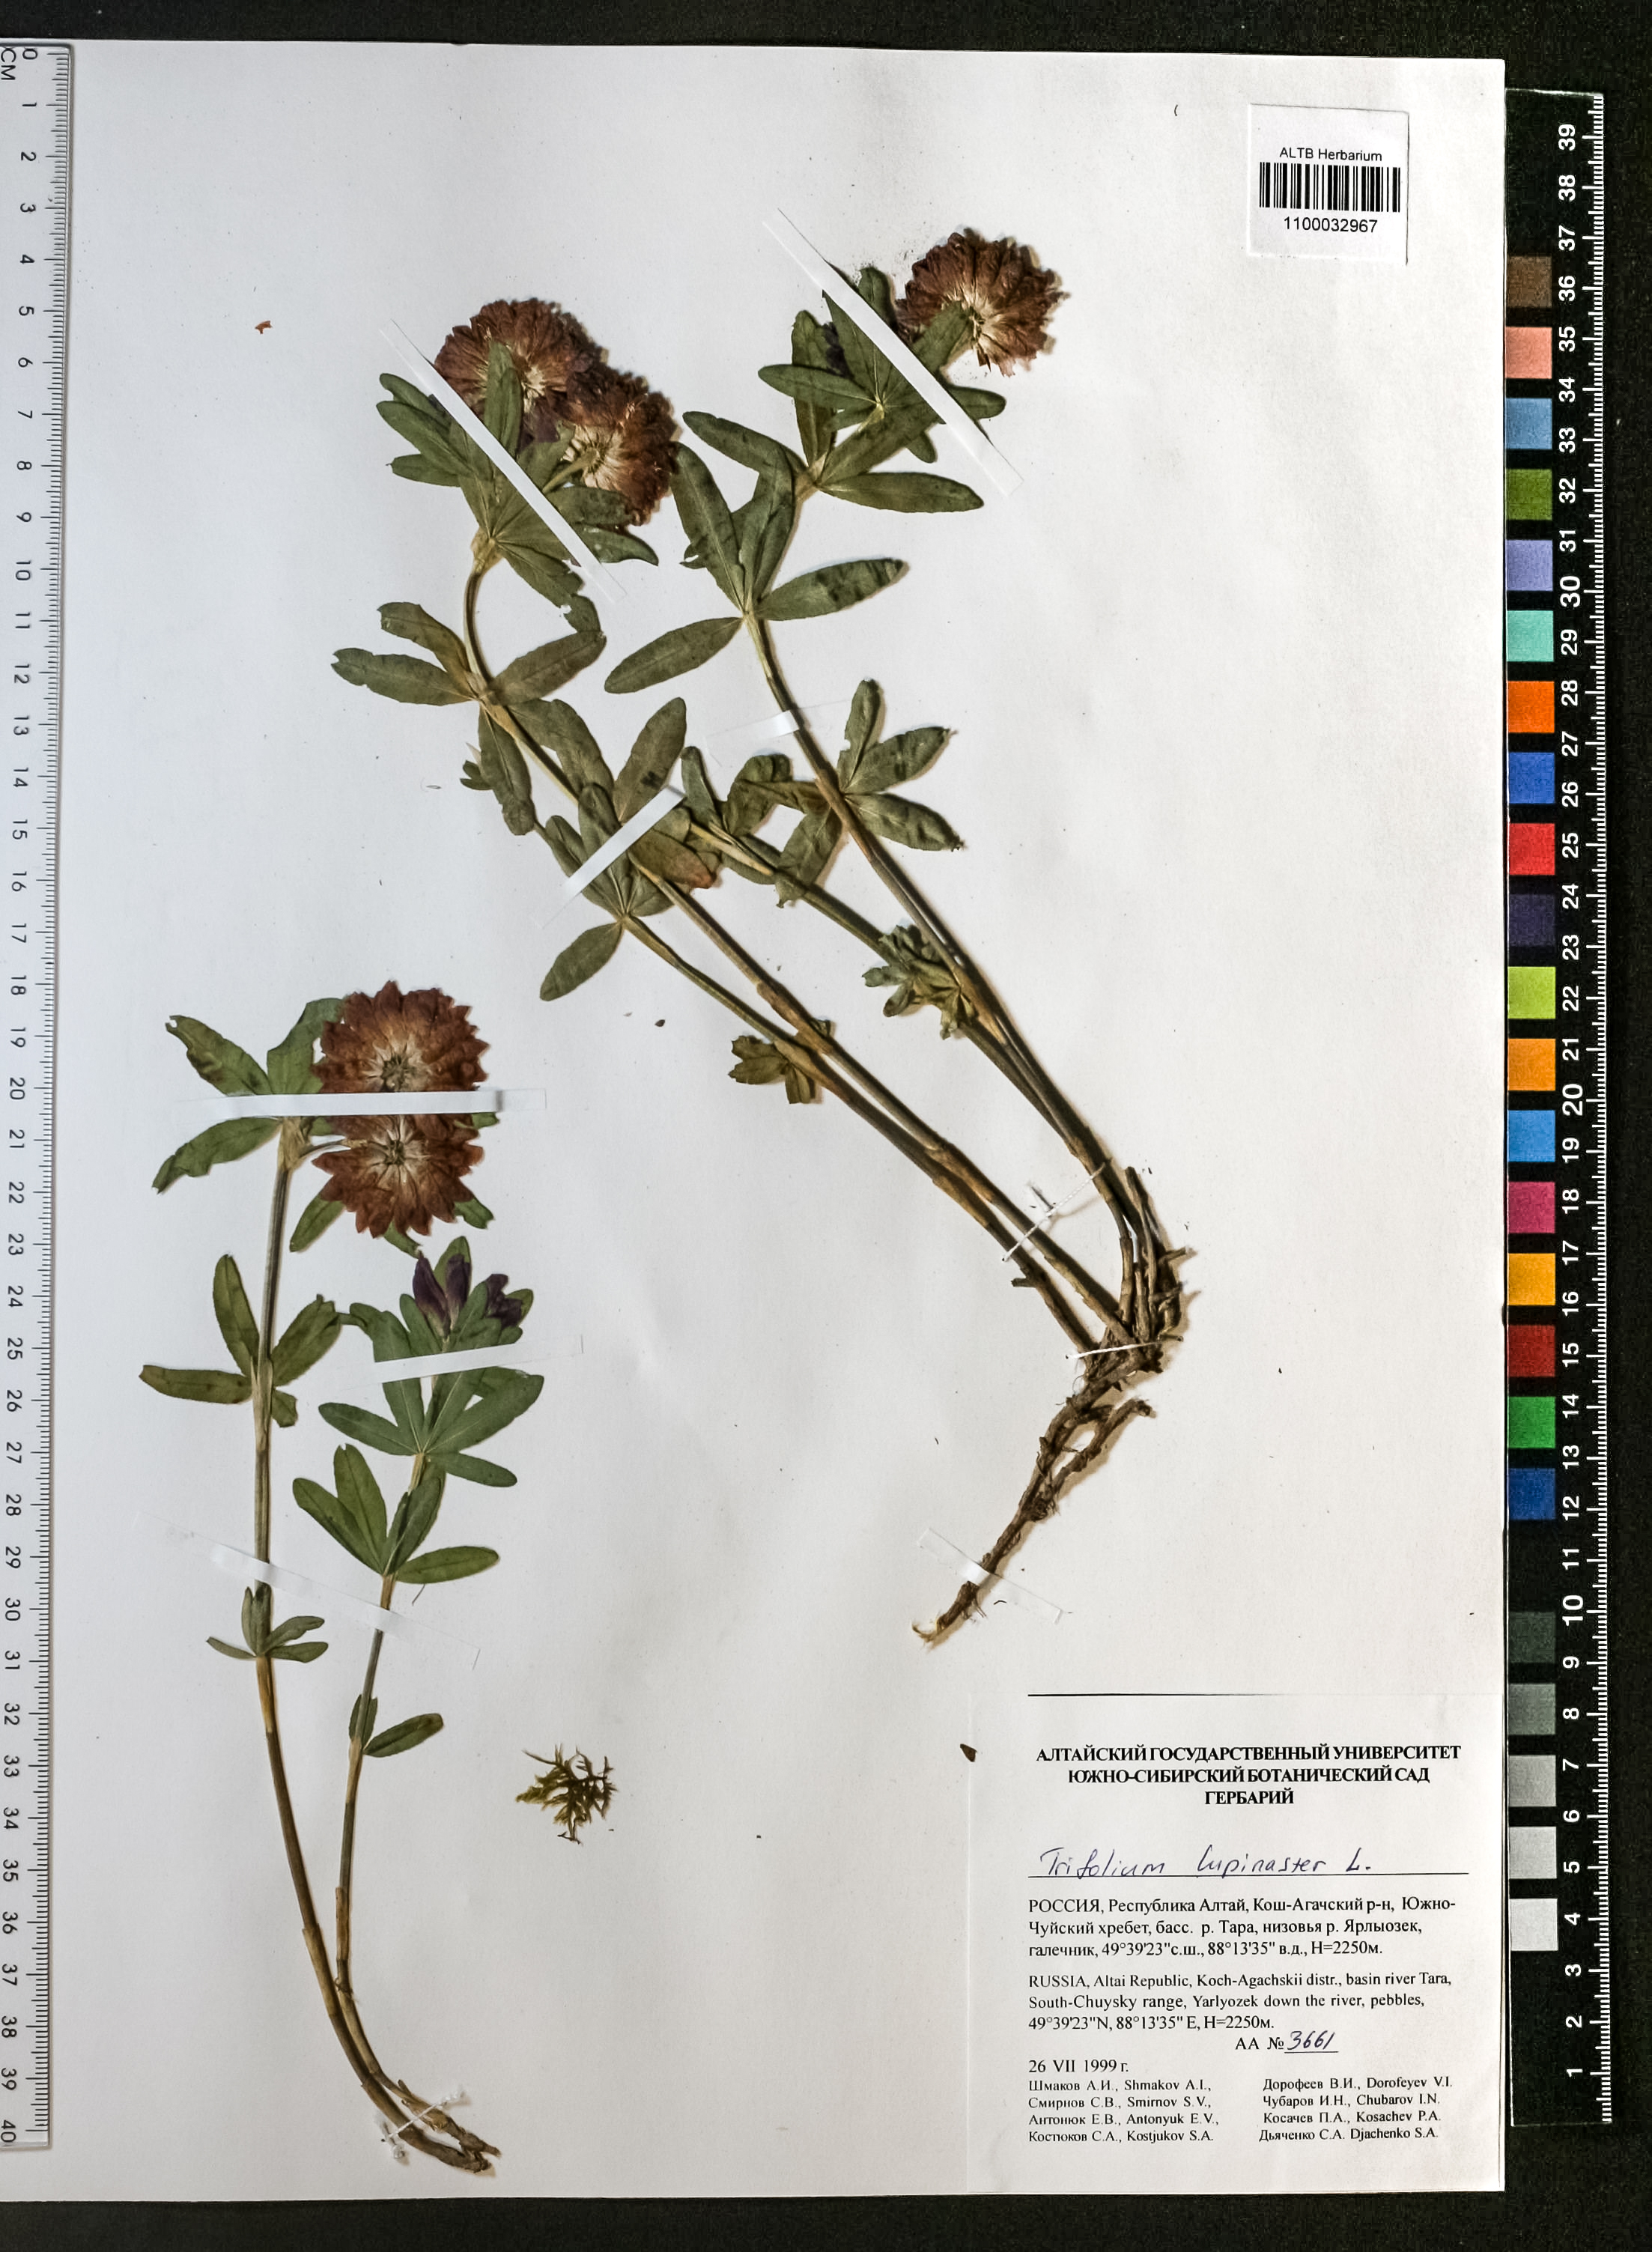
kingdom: Plantae
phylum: Tracheophyta
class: Magnoliopsida
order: Fabales
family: Fabaceae
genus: Trifolium
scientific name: Trifolium lupinaster
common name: Lupine clover
